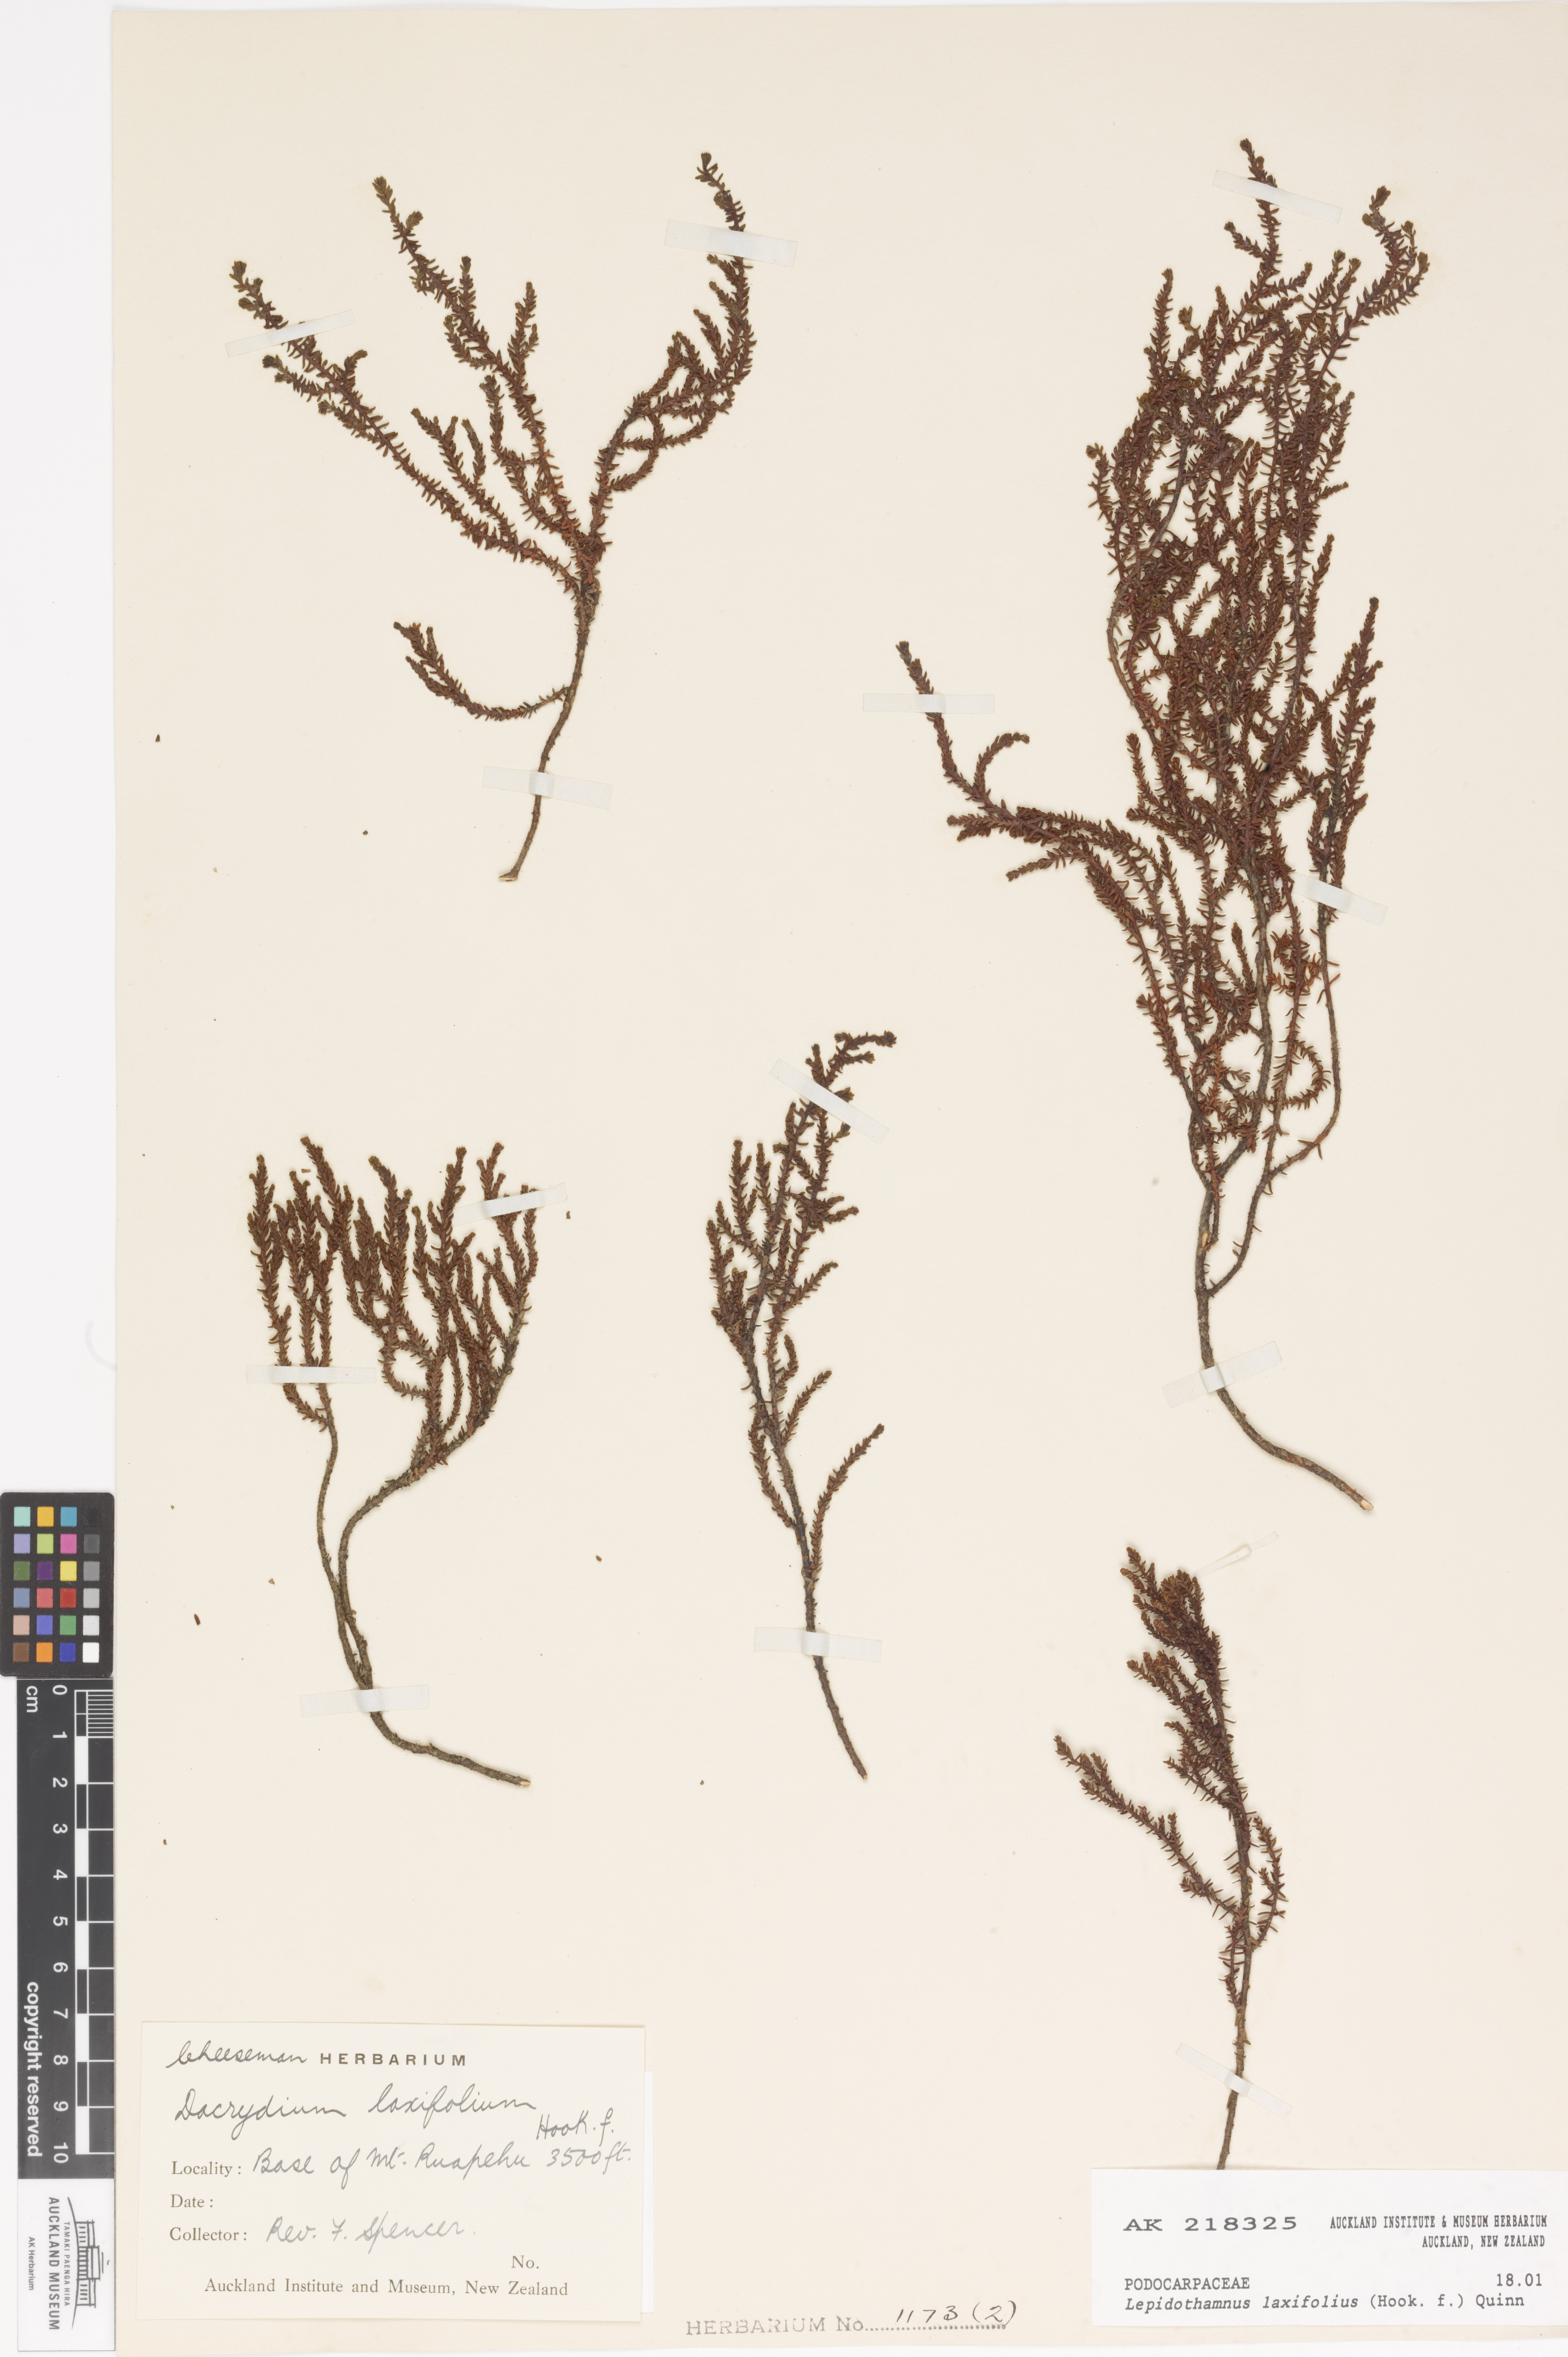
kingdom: Plantae
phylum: Tracheophyta
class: Pinopsida
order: Pinales
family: Podocarpaceae
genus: Lepidothamnus
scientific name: Lepidothamnus laxifolius
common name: Pygmy pine
